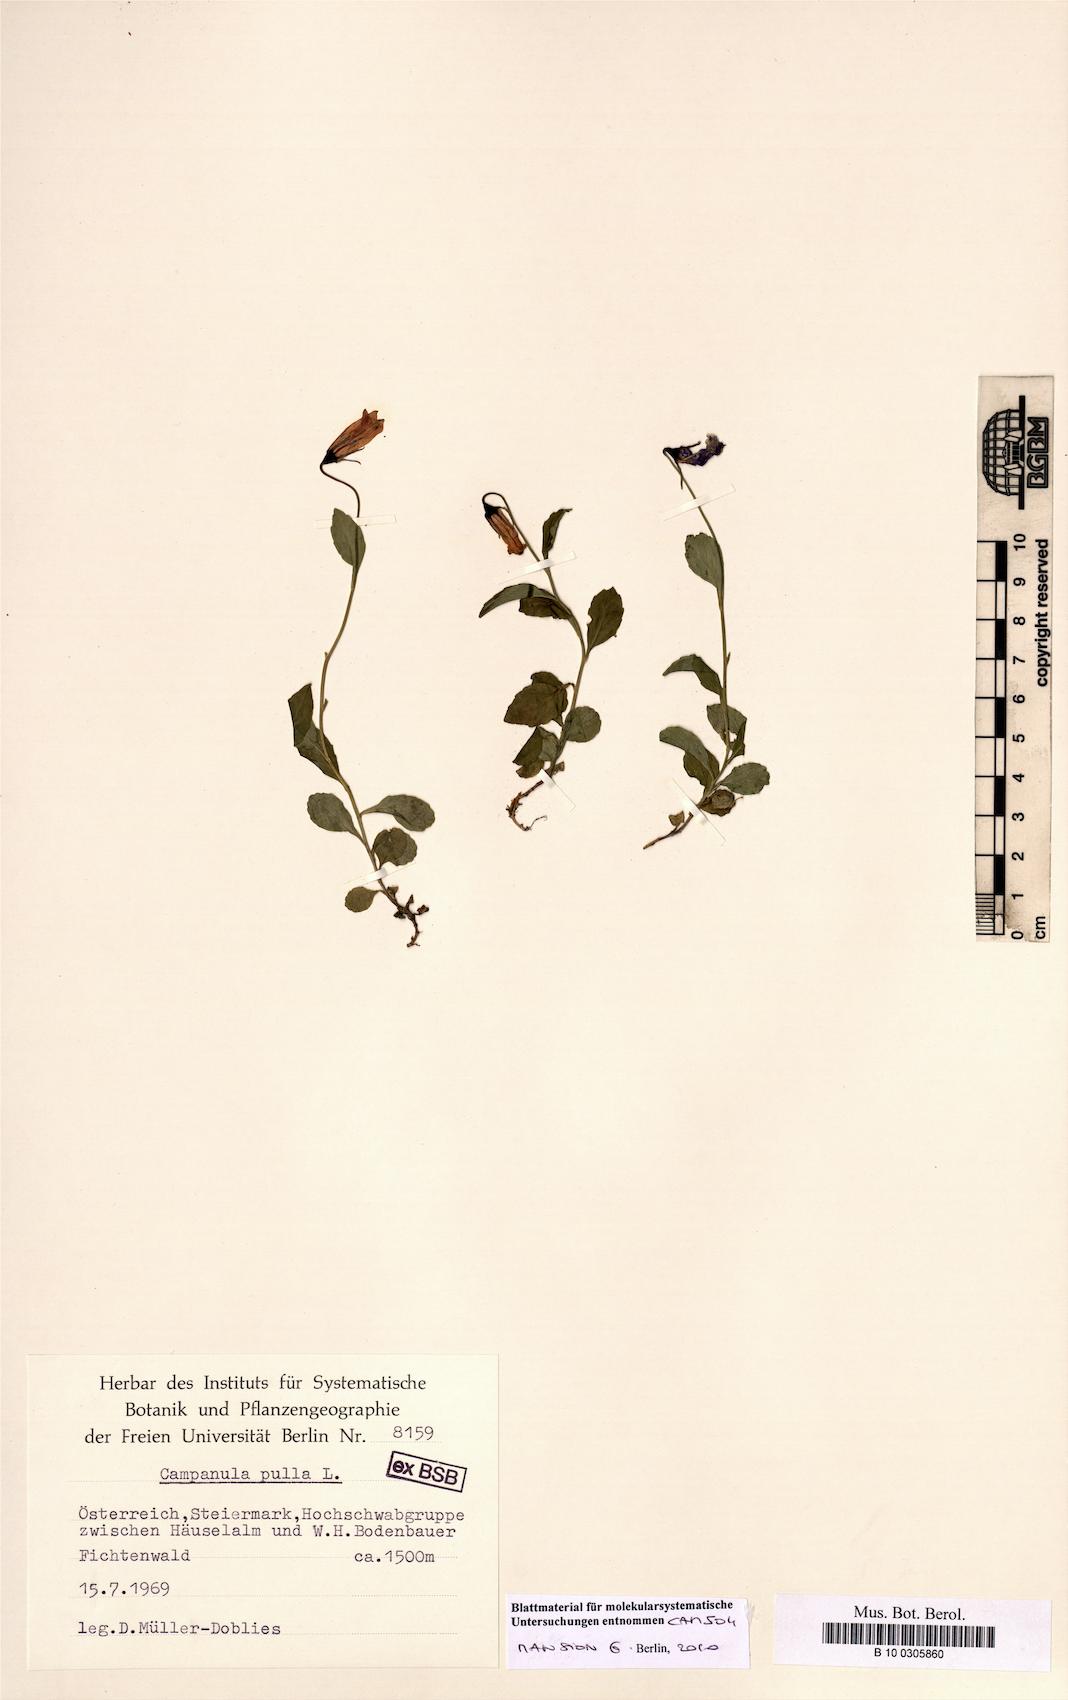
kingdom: Plantae
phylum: Tracheophyta
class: Magnoliopsida
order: Asterales
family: Campanulaceae
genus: Campanula
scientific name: Campanula pulla
